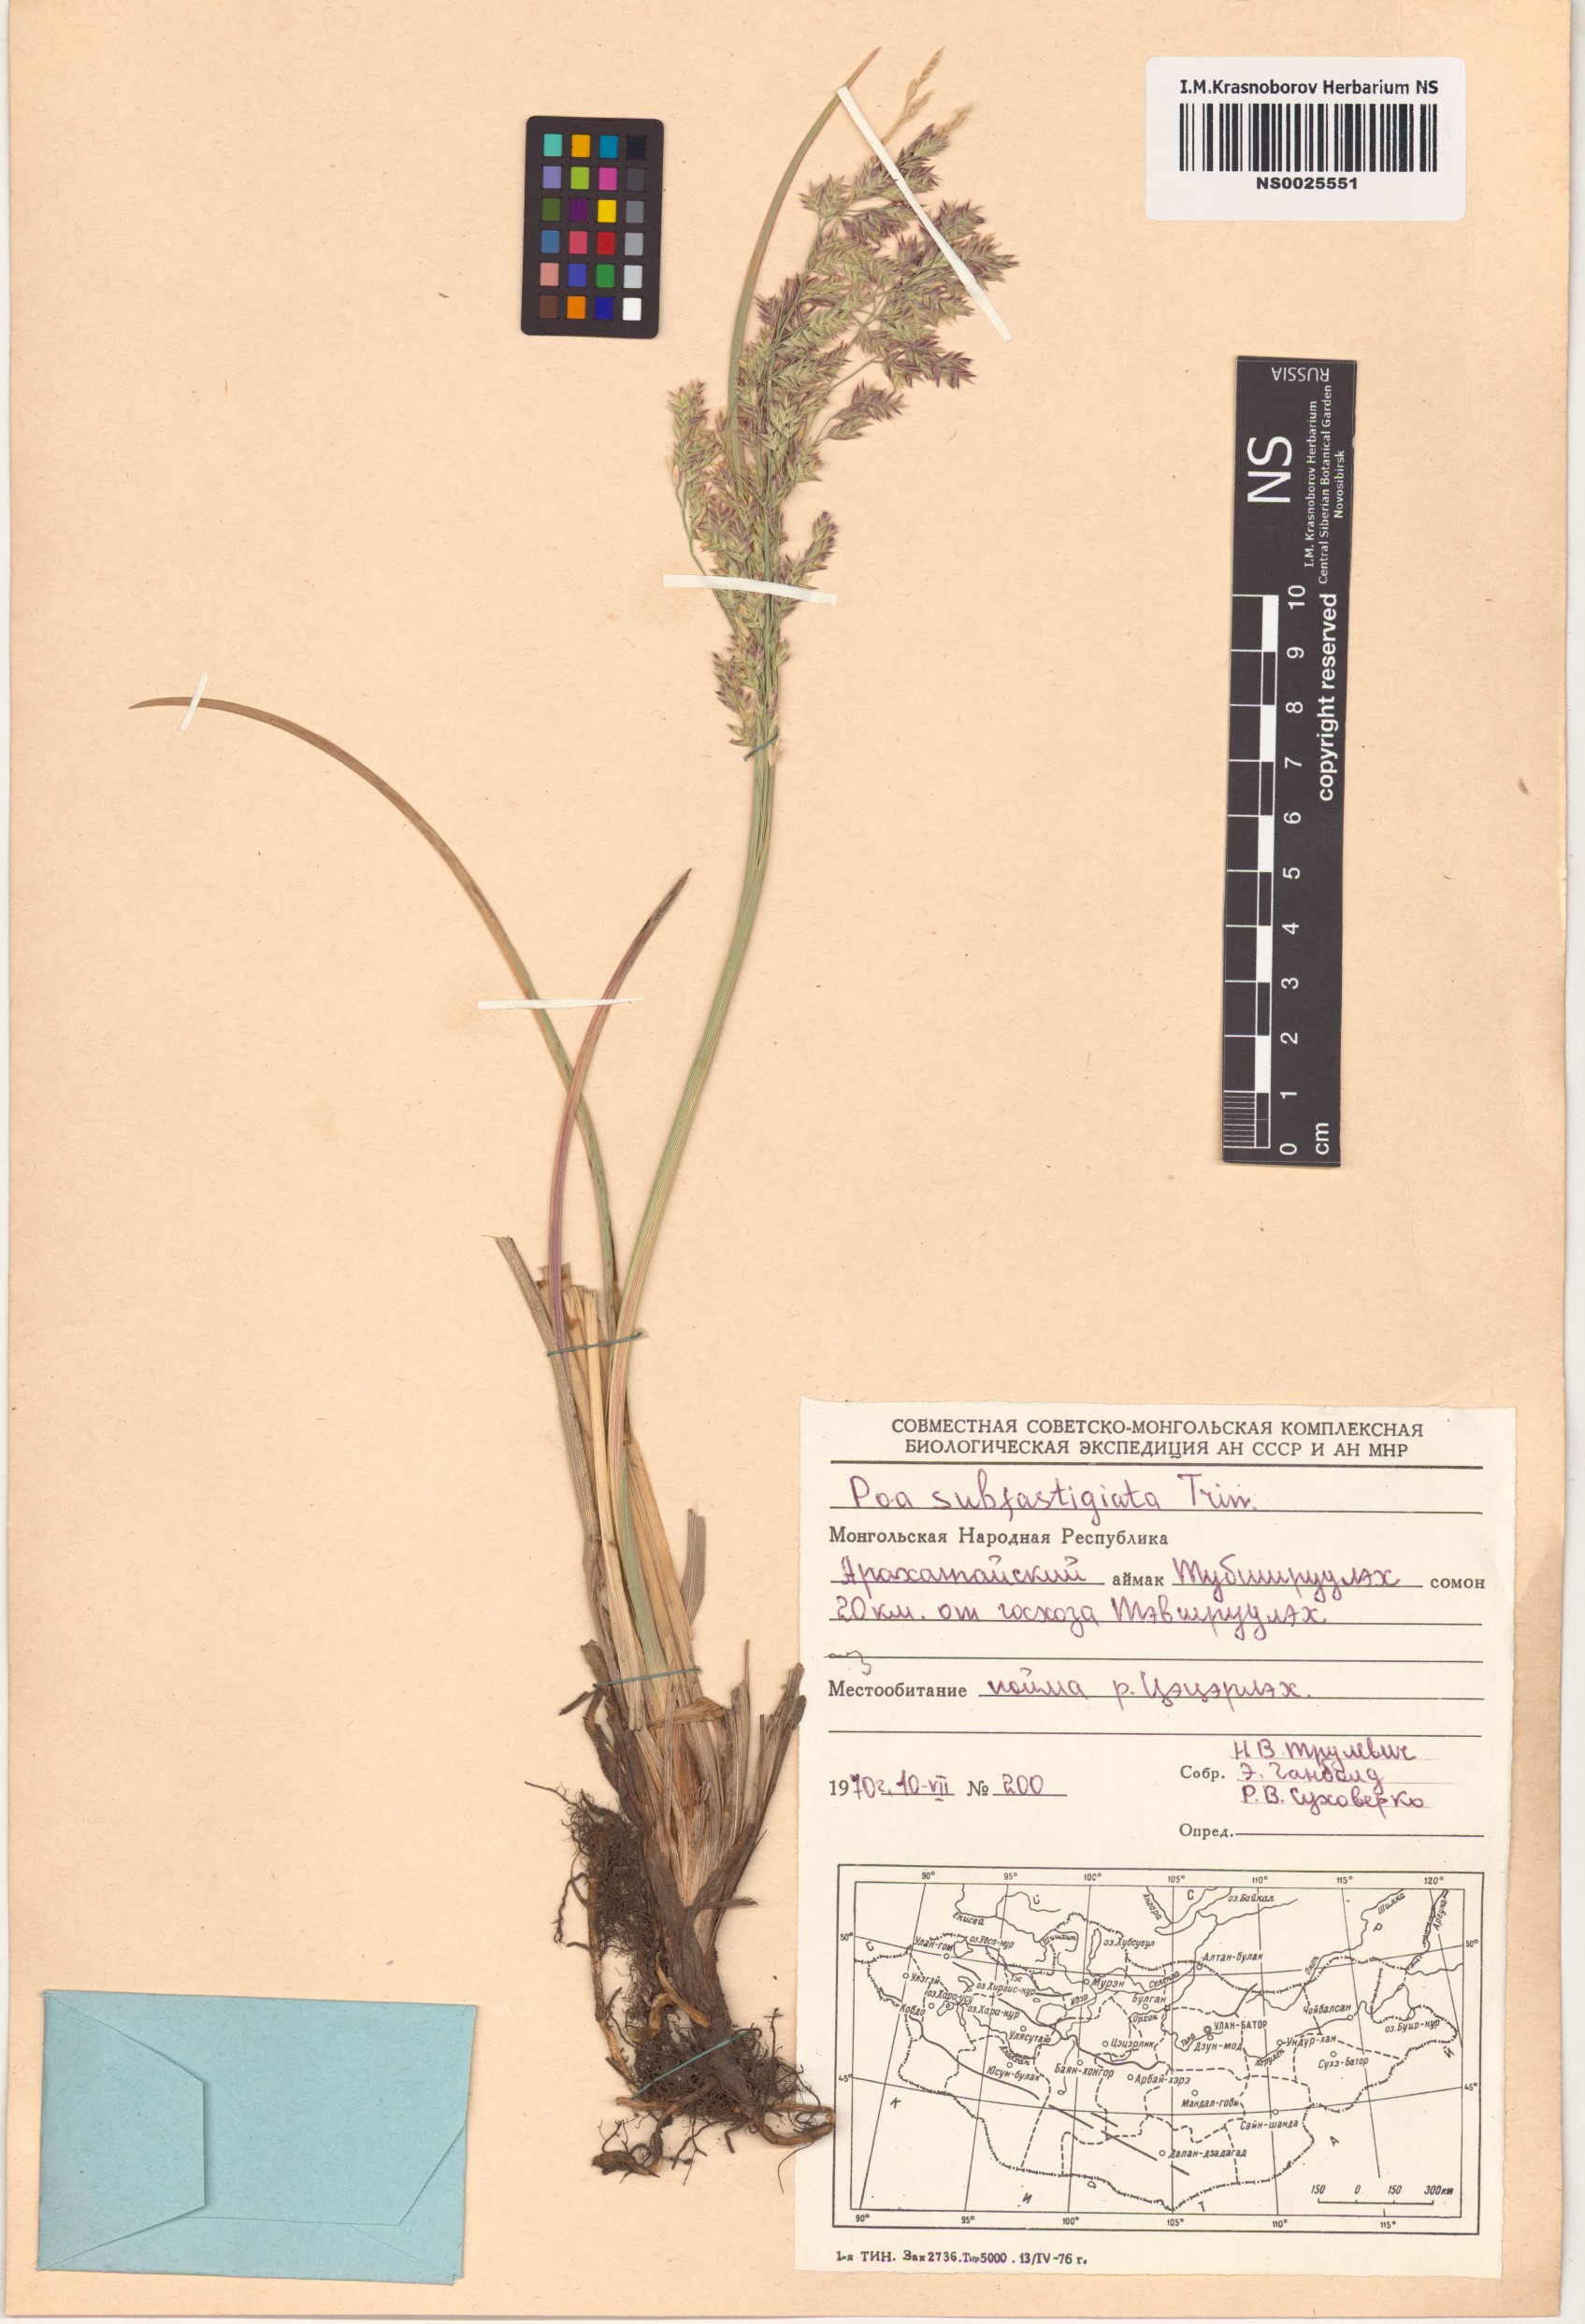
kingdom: Plantae
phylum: Tracheophyta
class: Liliopsida
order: Poales
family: Poaceae
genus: Arctopoa
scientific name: Arctopoa subfastigiata
